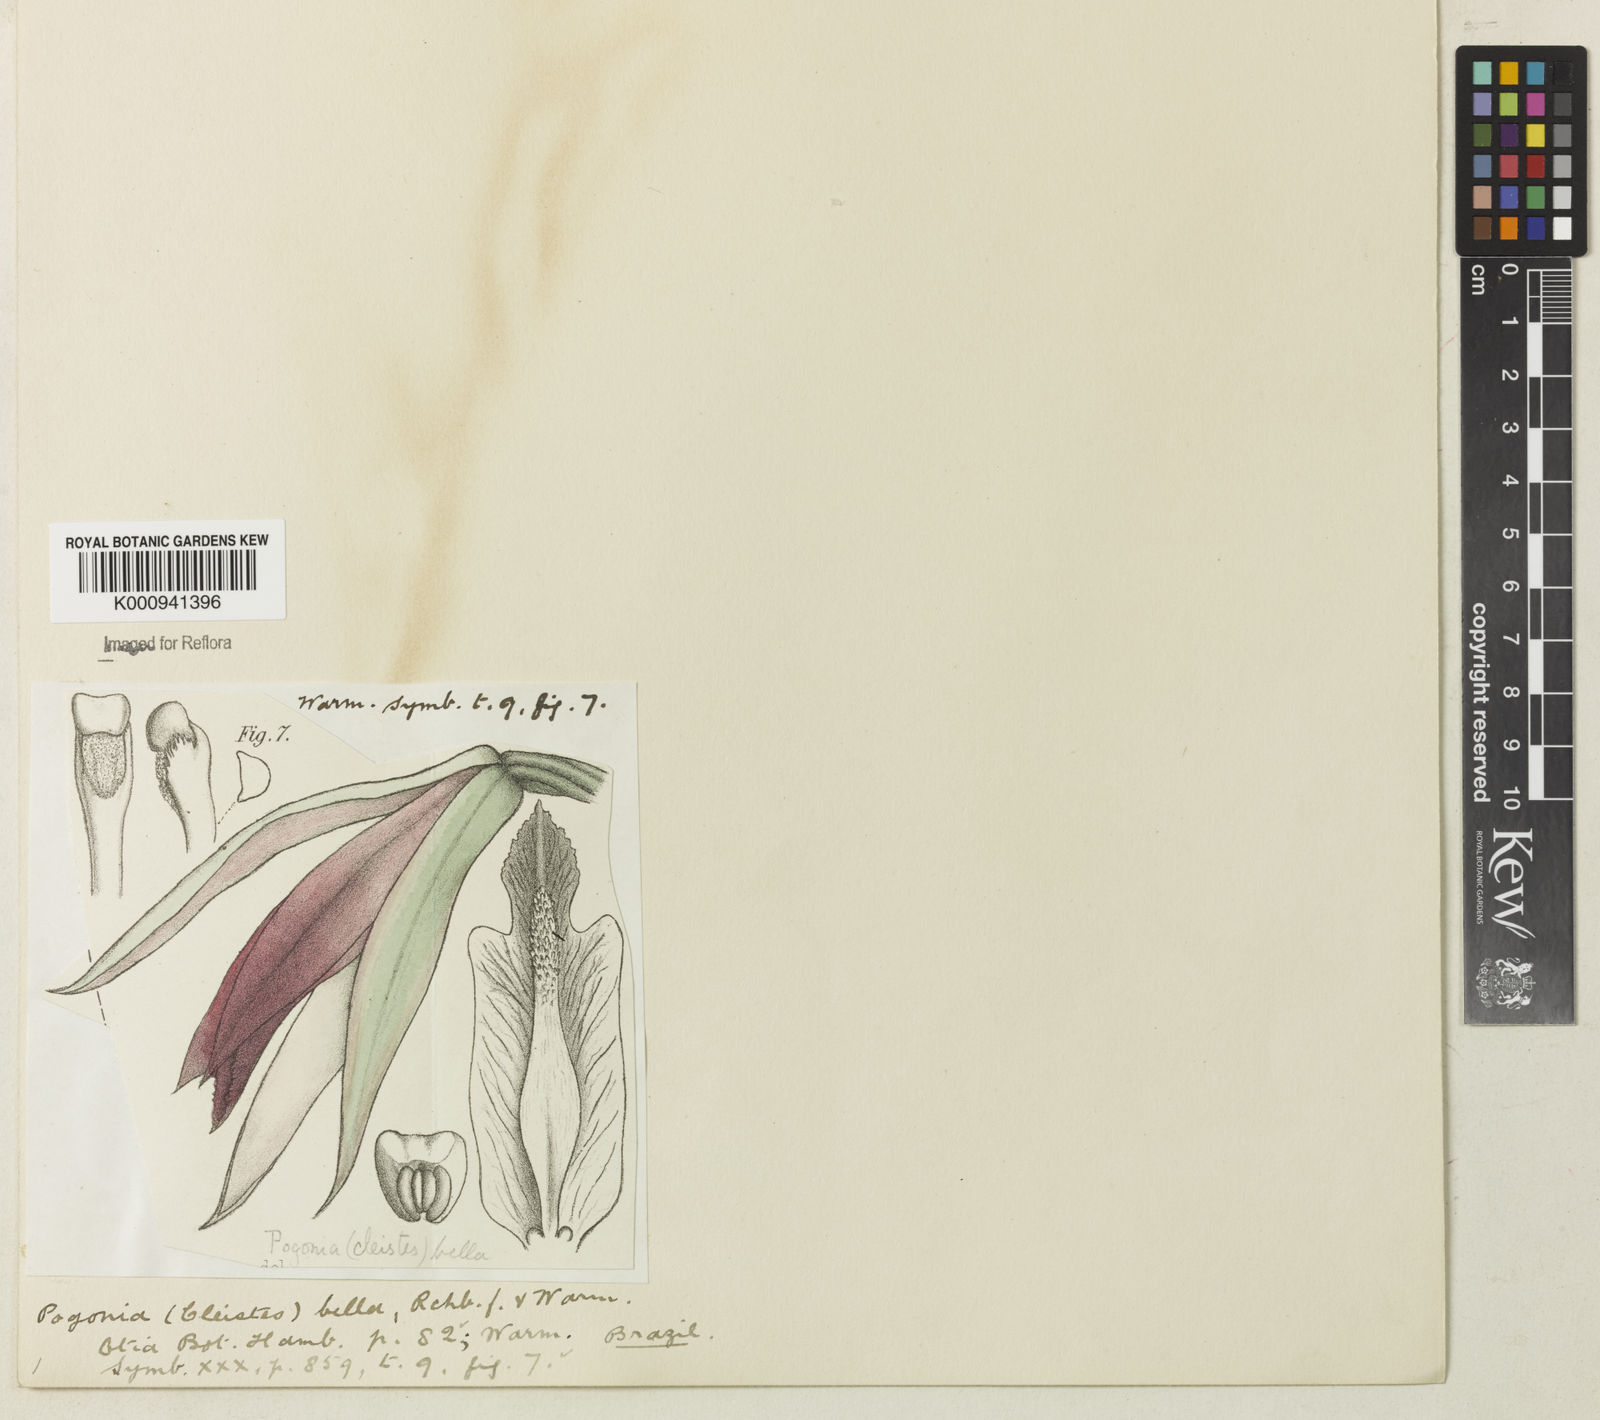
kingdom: Plantae
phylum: Tracheophyta
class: Liliopsida
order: Asparagales
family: Orchidaceae
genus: Cleistes
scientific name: Cleistes
